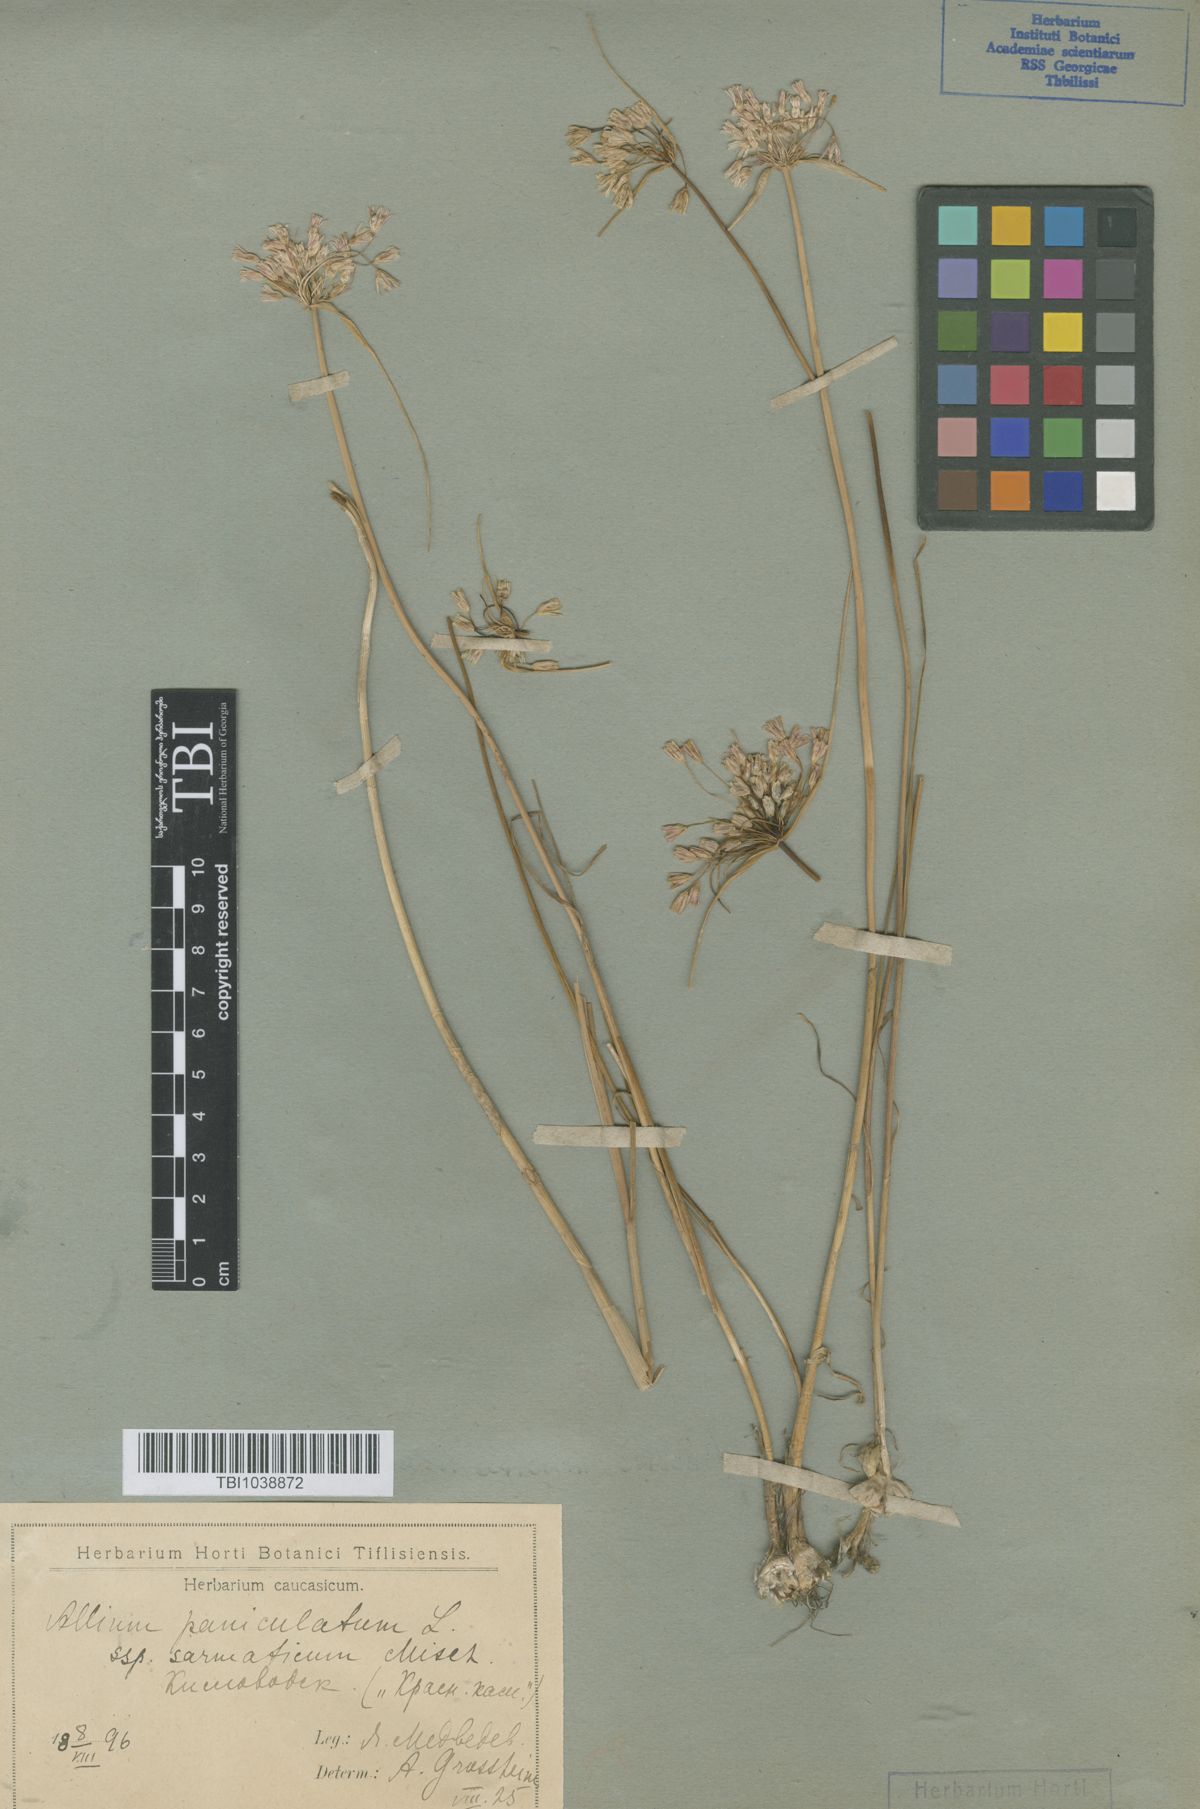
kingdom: Plantae
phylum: Tracheophyta
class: Liliopsida
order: Asparagales
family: Amaryllidaceae
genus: Allium
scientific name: Allium paniculatum
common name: Pale garlic
